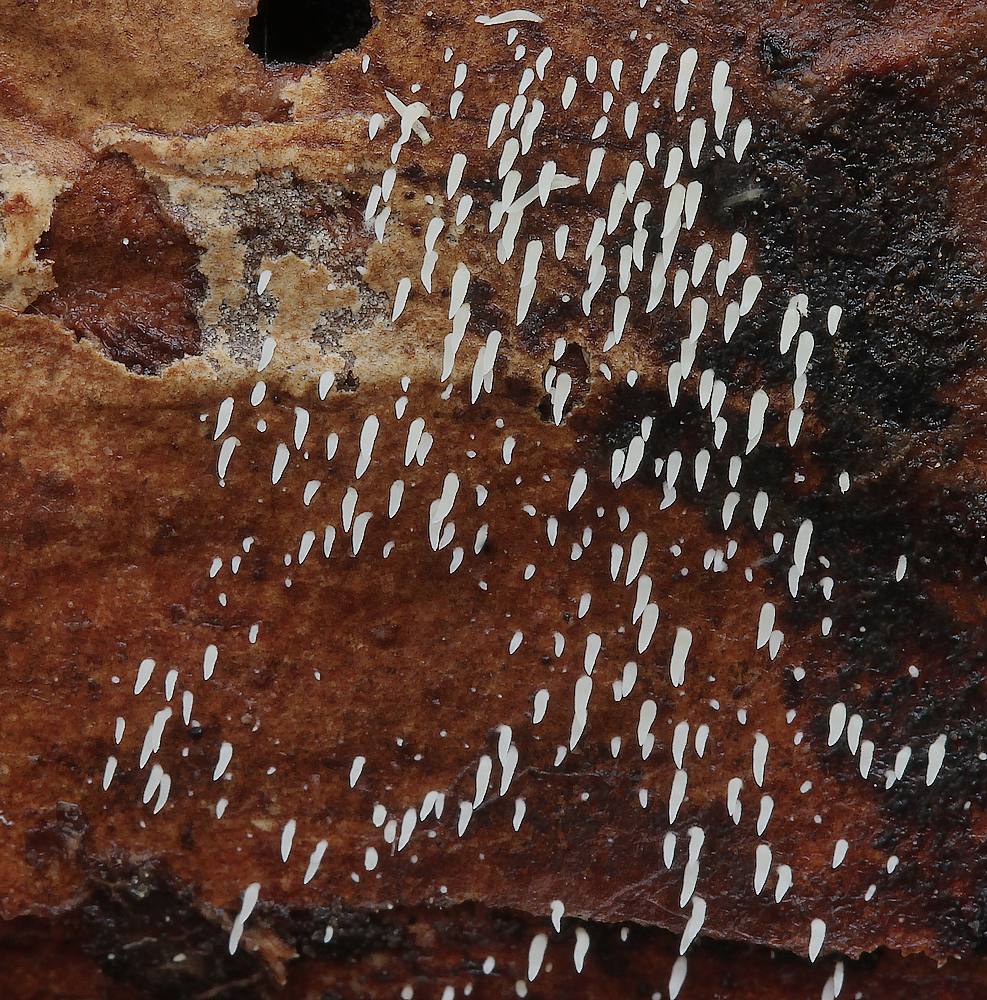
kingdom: Fungi
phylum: Basidiomycota
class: Agaricomycetes
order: Agaricales
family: Clavariaceae
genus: Mucronella
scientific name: Mucronella calva
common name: hvid hængepig
